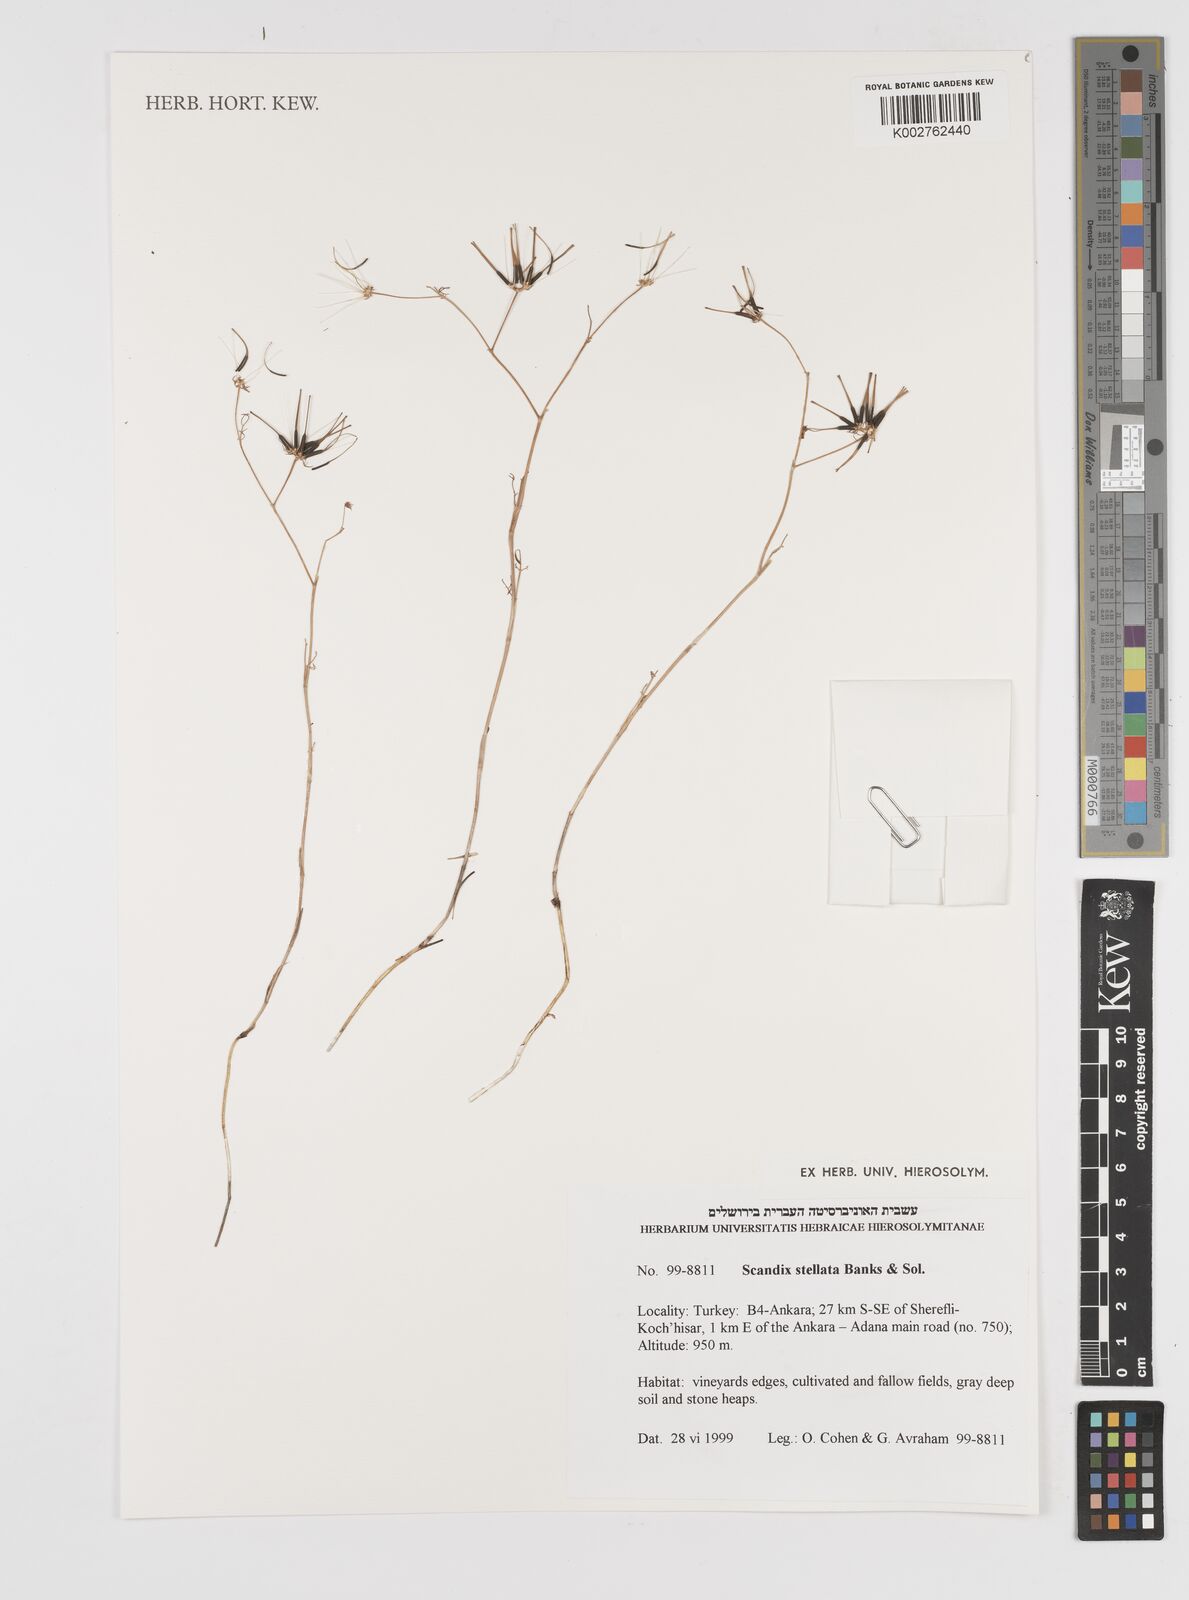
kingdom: Plantae
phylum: Tracheophyta
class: Magnoliopsida
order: Apiales
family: Apiaceae
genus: Scandix
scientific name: Scandix stellata
